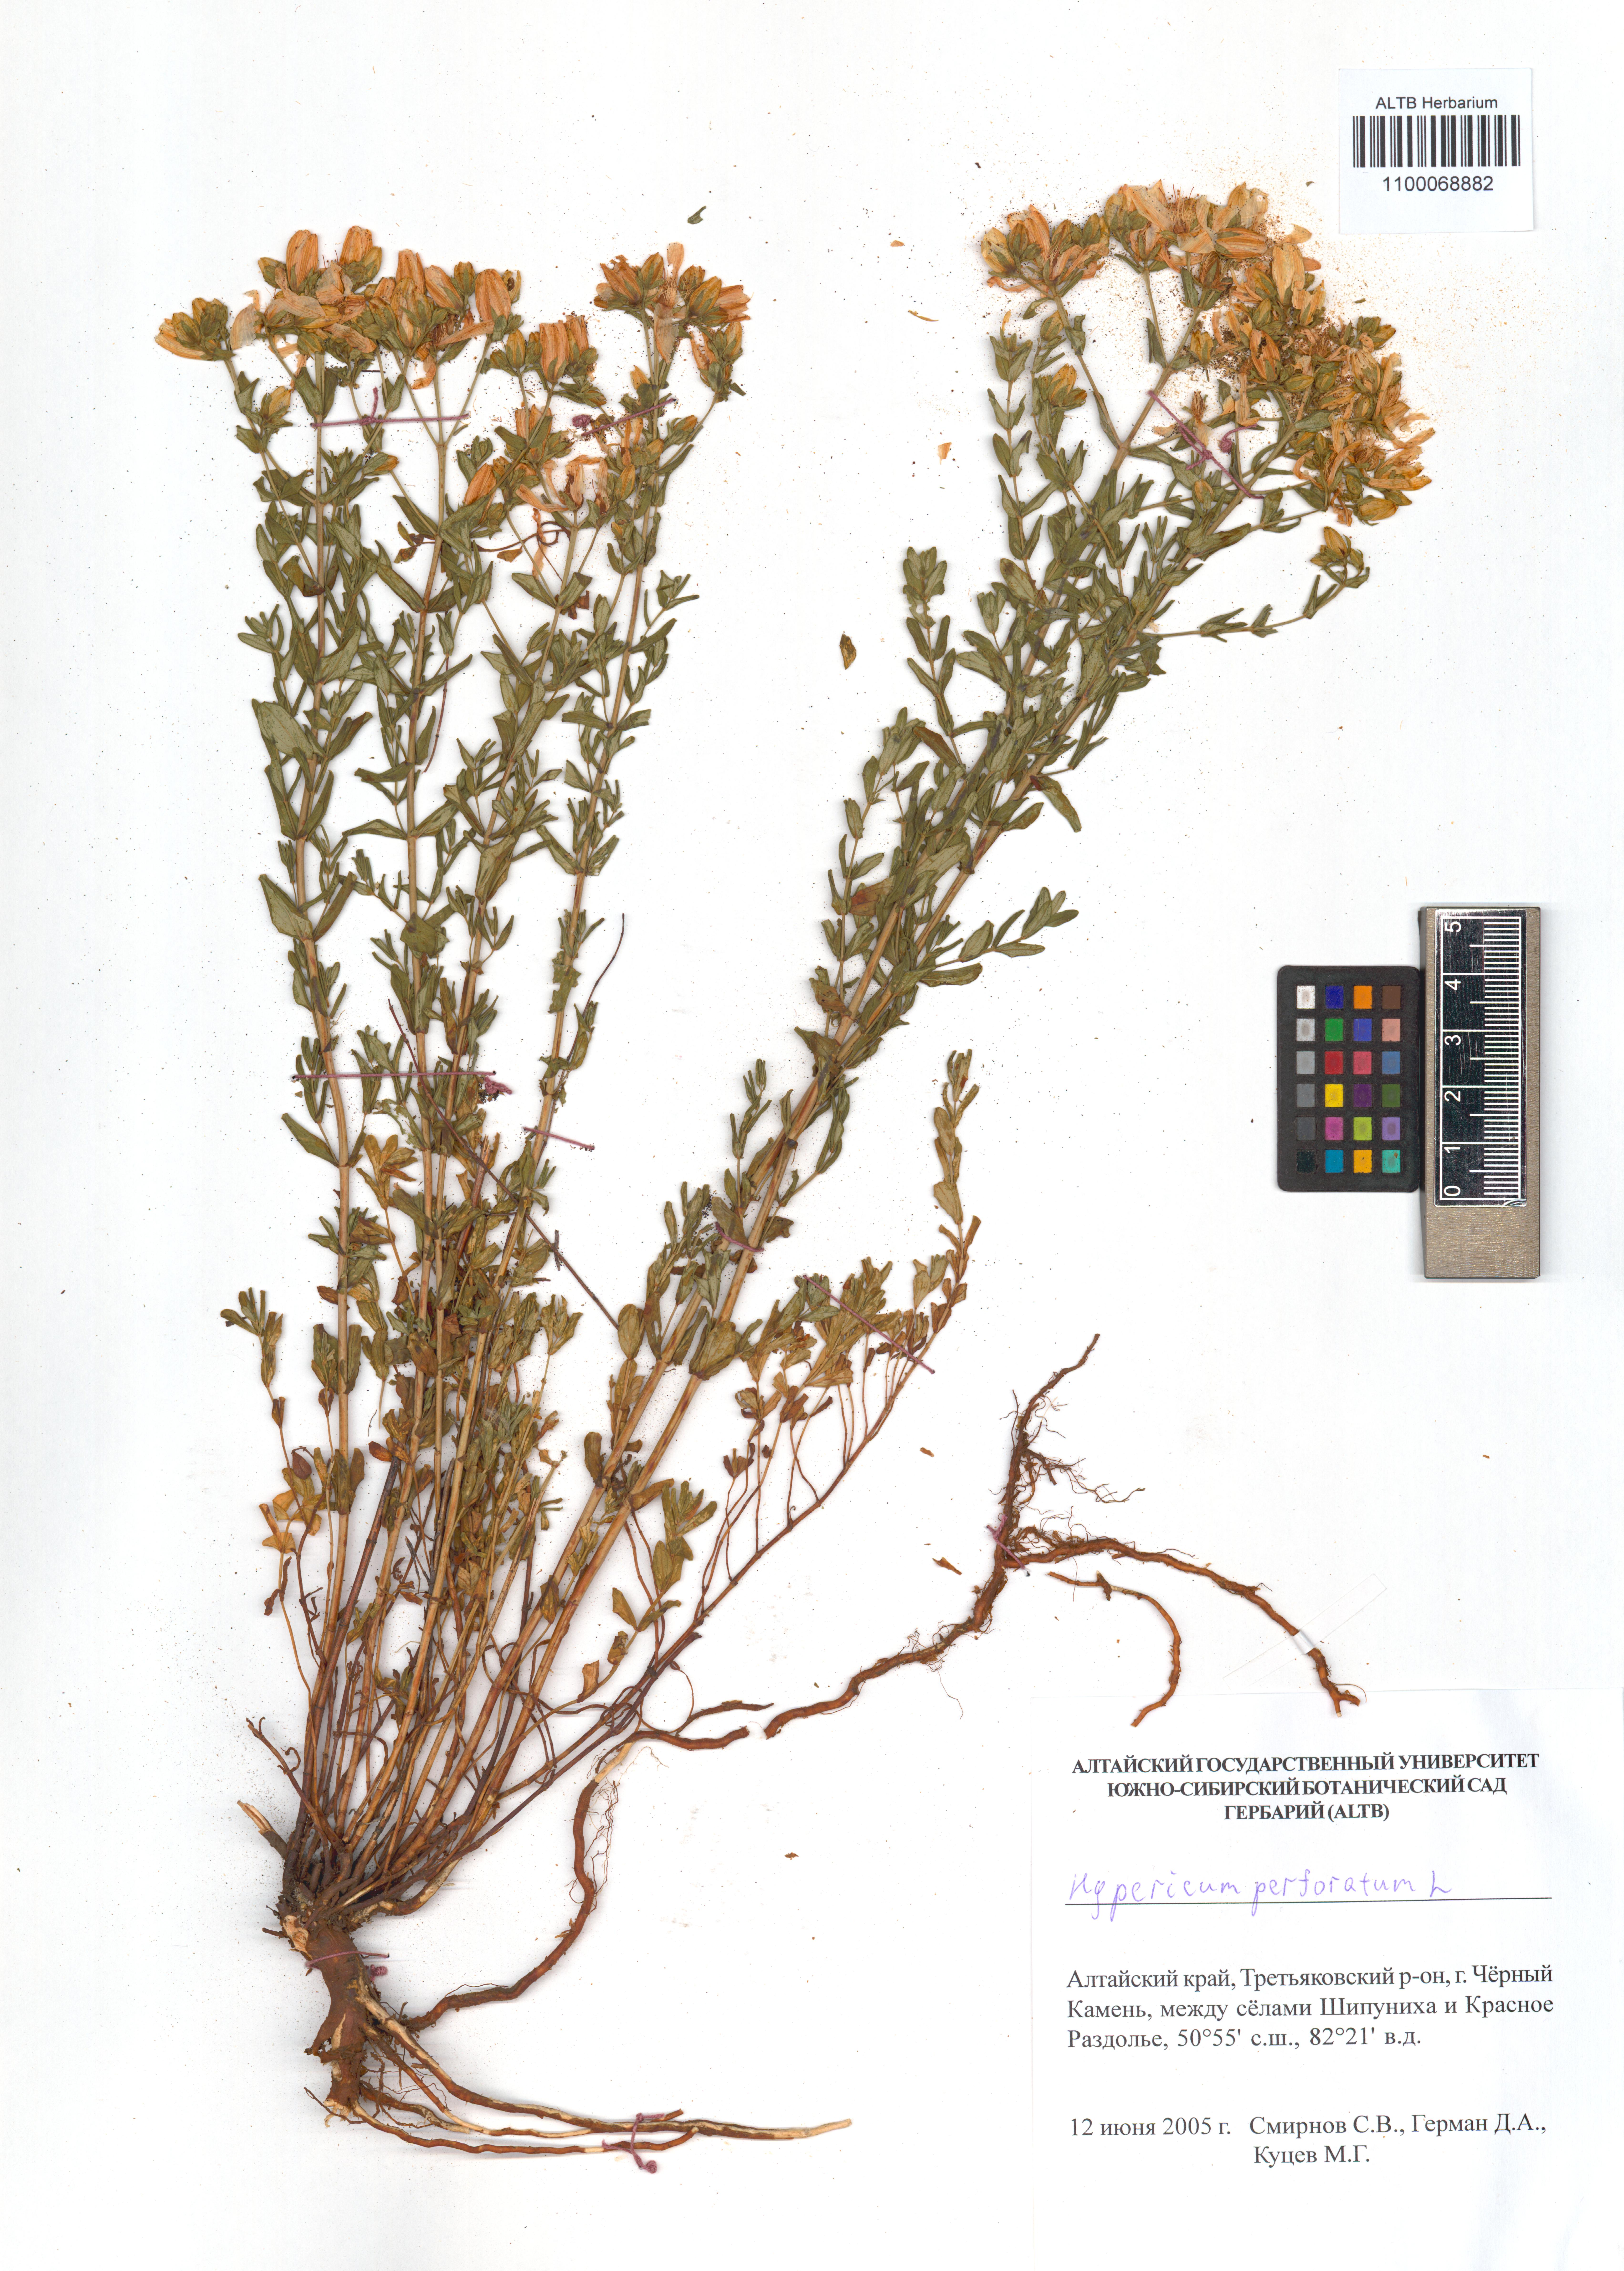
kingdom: Plantae
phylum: Tracheophyta
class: Magnoliopsida
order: Malpighiales
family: Hypericaceae
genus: Hypericum
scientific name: Hypericum perforatum
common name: Common st. johnswort
